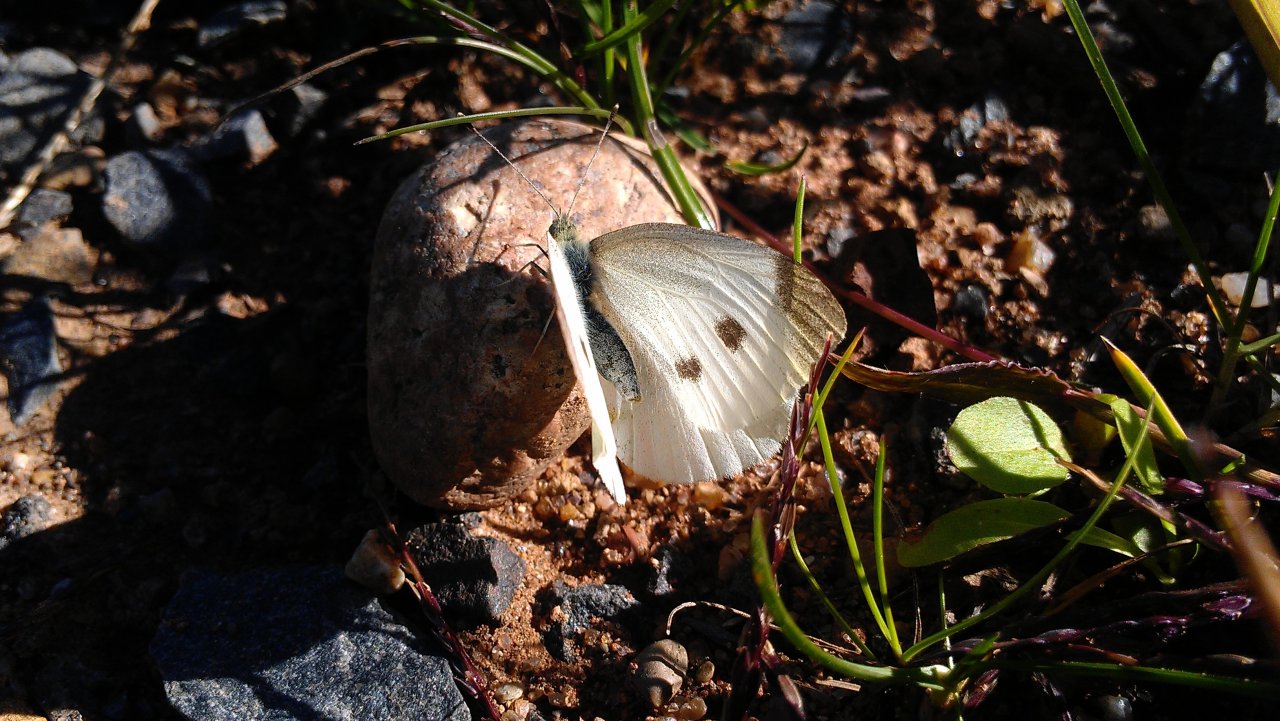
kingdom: Animalia
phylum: Arthropoda
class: Insecta
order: Lepidoptera
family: Pieridae
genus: Pieris
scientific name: Pieris rapae
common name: Cabbage White
